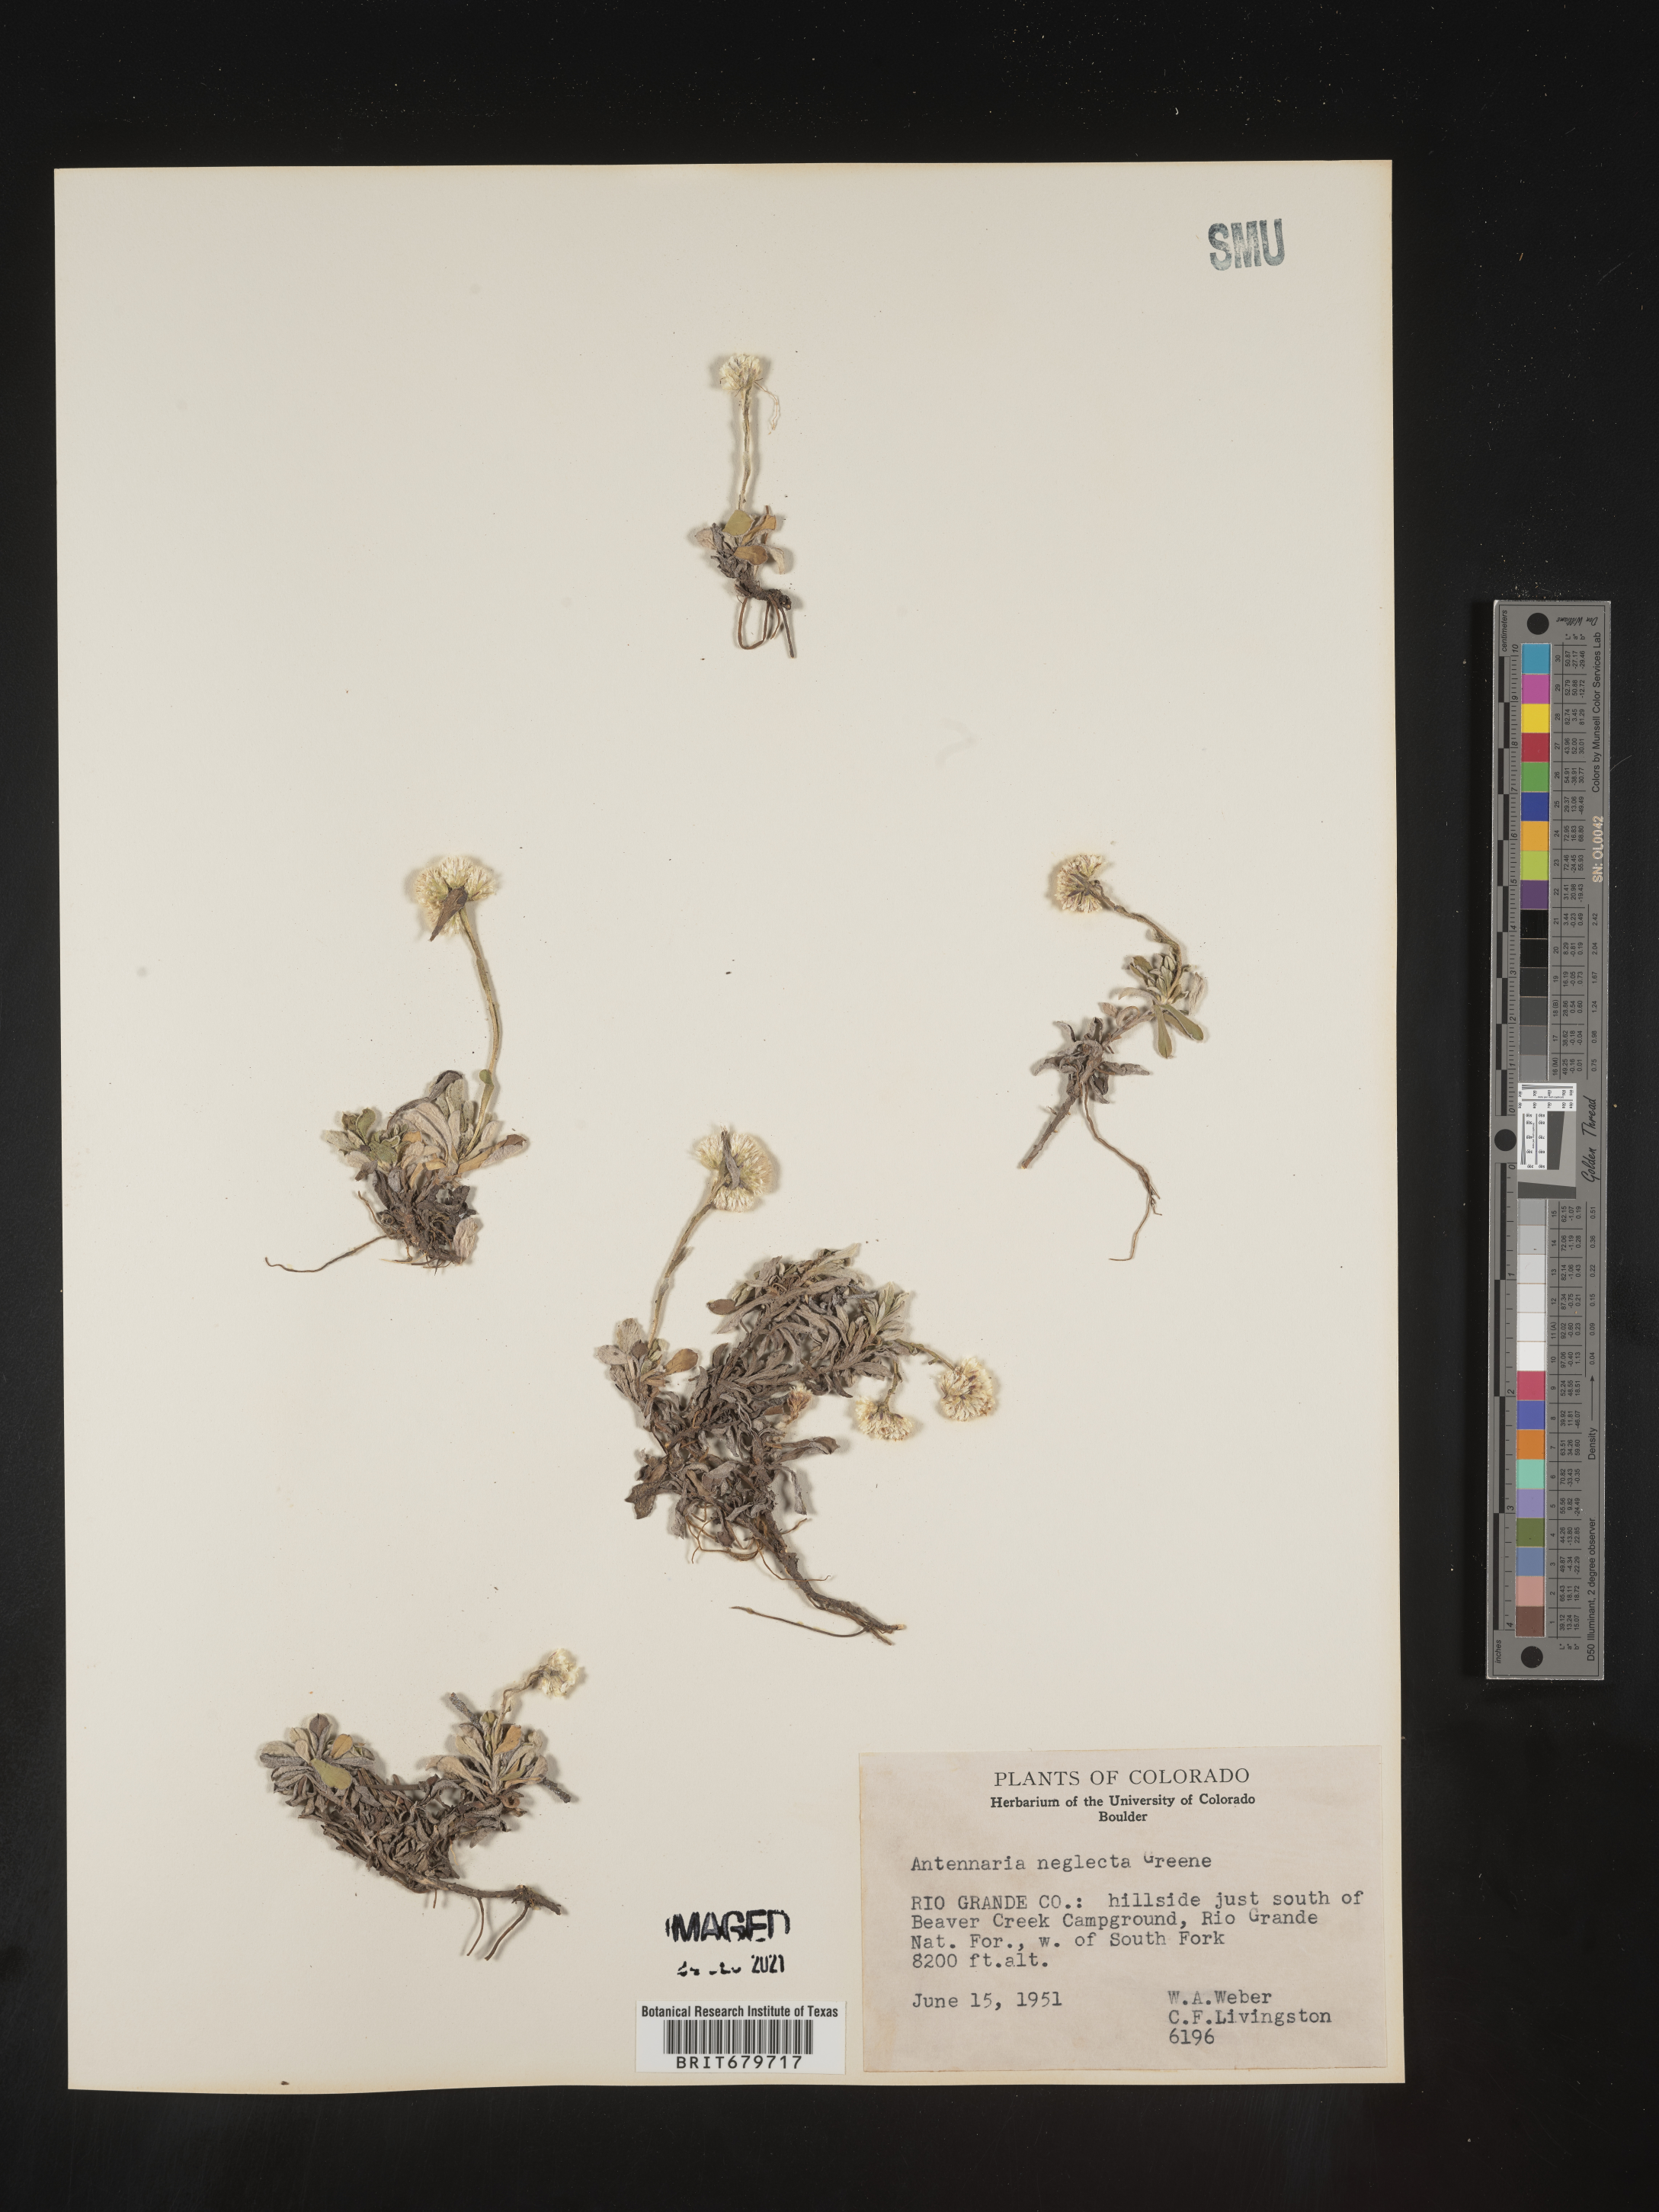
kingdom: Plantae
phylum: Tracheophyta
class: Magnoliopsida
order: Asterales
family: Asteraceae
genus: Antennaria
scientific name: Antennaria neglecta
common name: Field pussytoes
